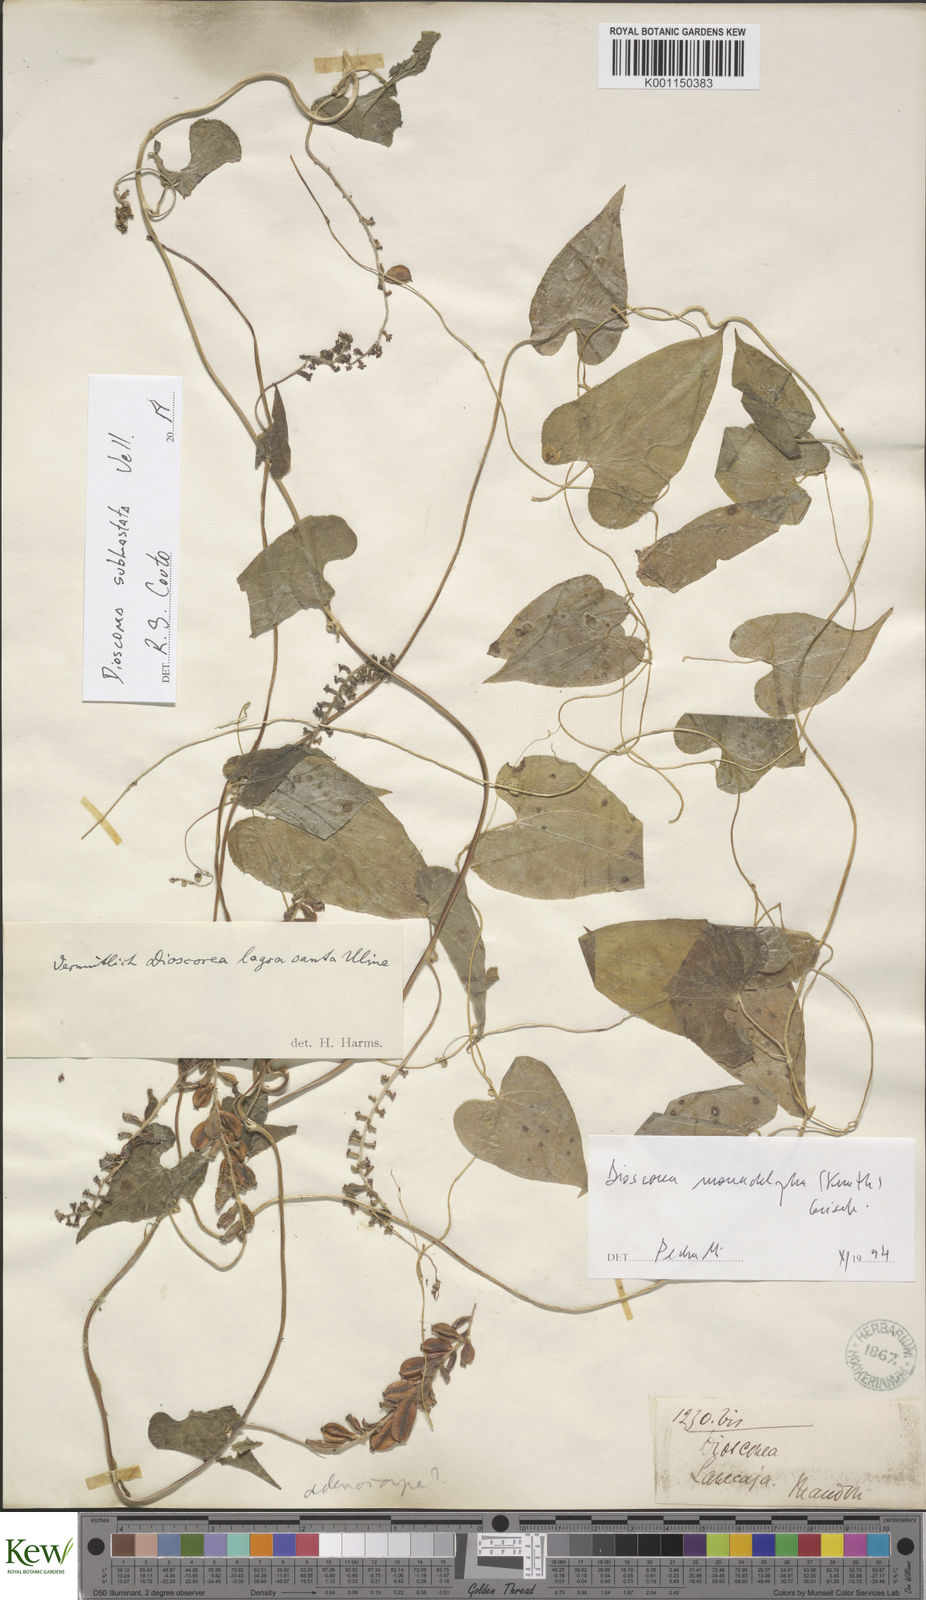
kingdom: Plantae
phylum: Tracheophyta
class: Liliopsida
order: Dioscoreales
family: Dioscoreaceae
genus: Dioscorea
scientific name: Dioscorea subhastata
